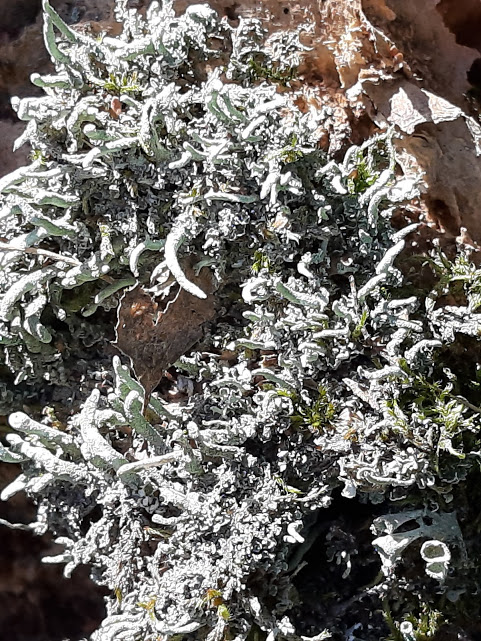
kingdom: Fungi
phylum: Ascomycota
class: Lecanoromycetes
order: Lecanorales
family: Cladoniaceae
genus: Cladonia
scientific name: Cladonia
